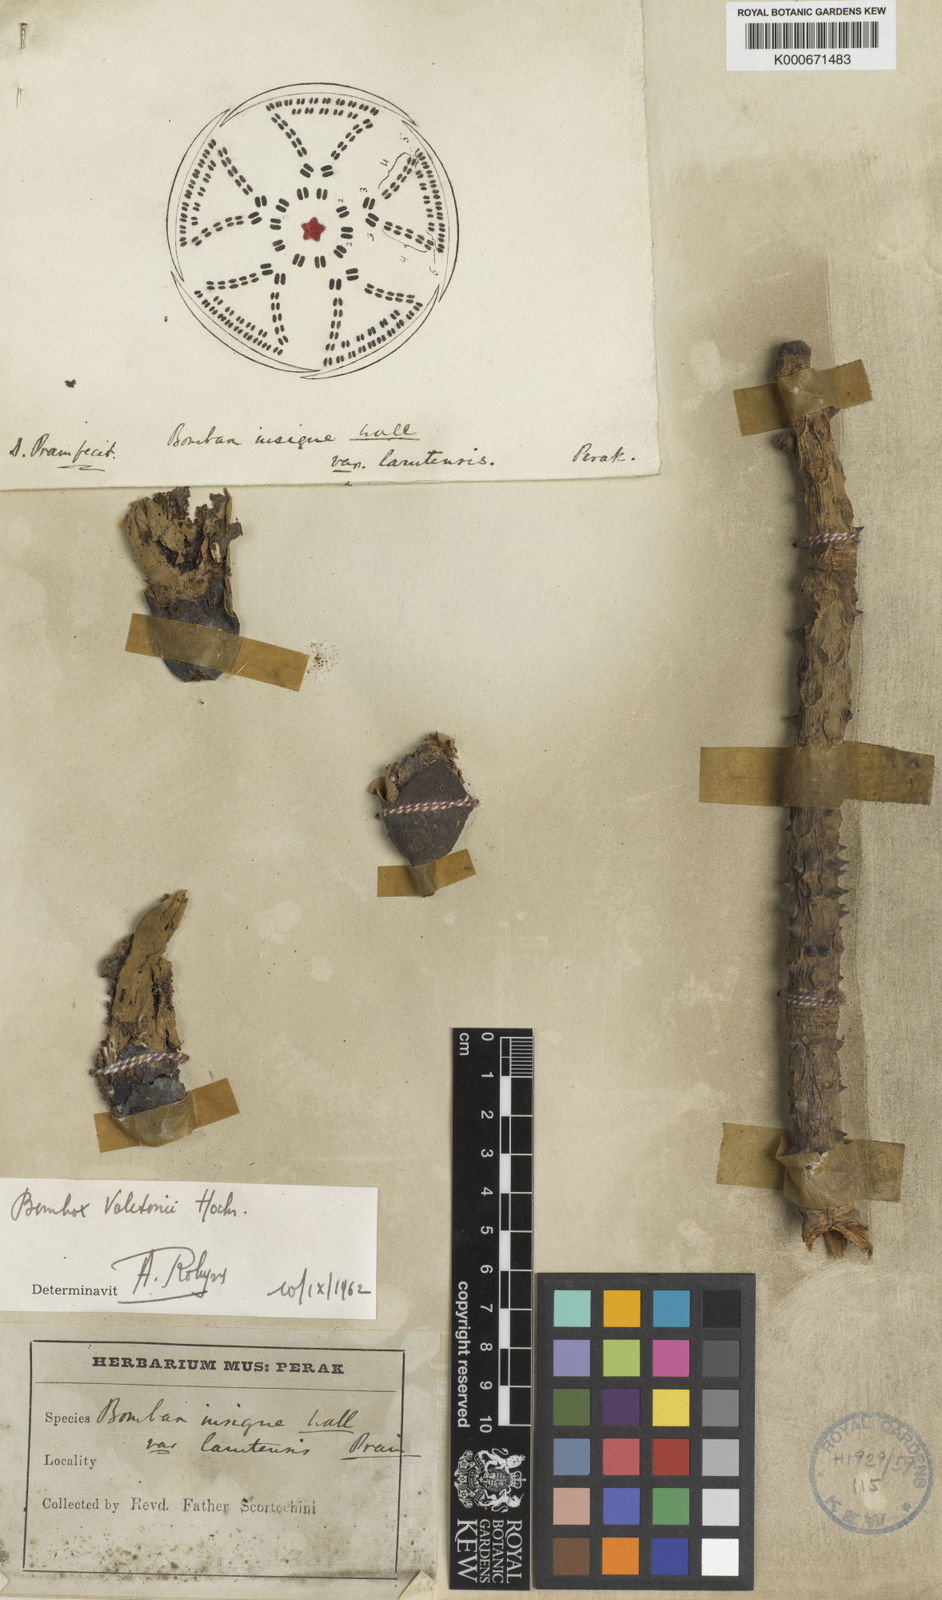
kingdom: Plantae
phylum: Tracheophyta
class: Magnoliopsida
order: Malvales
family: Malvaceae
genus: Bombax
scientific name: Bombax anceps
